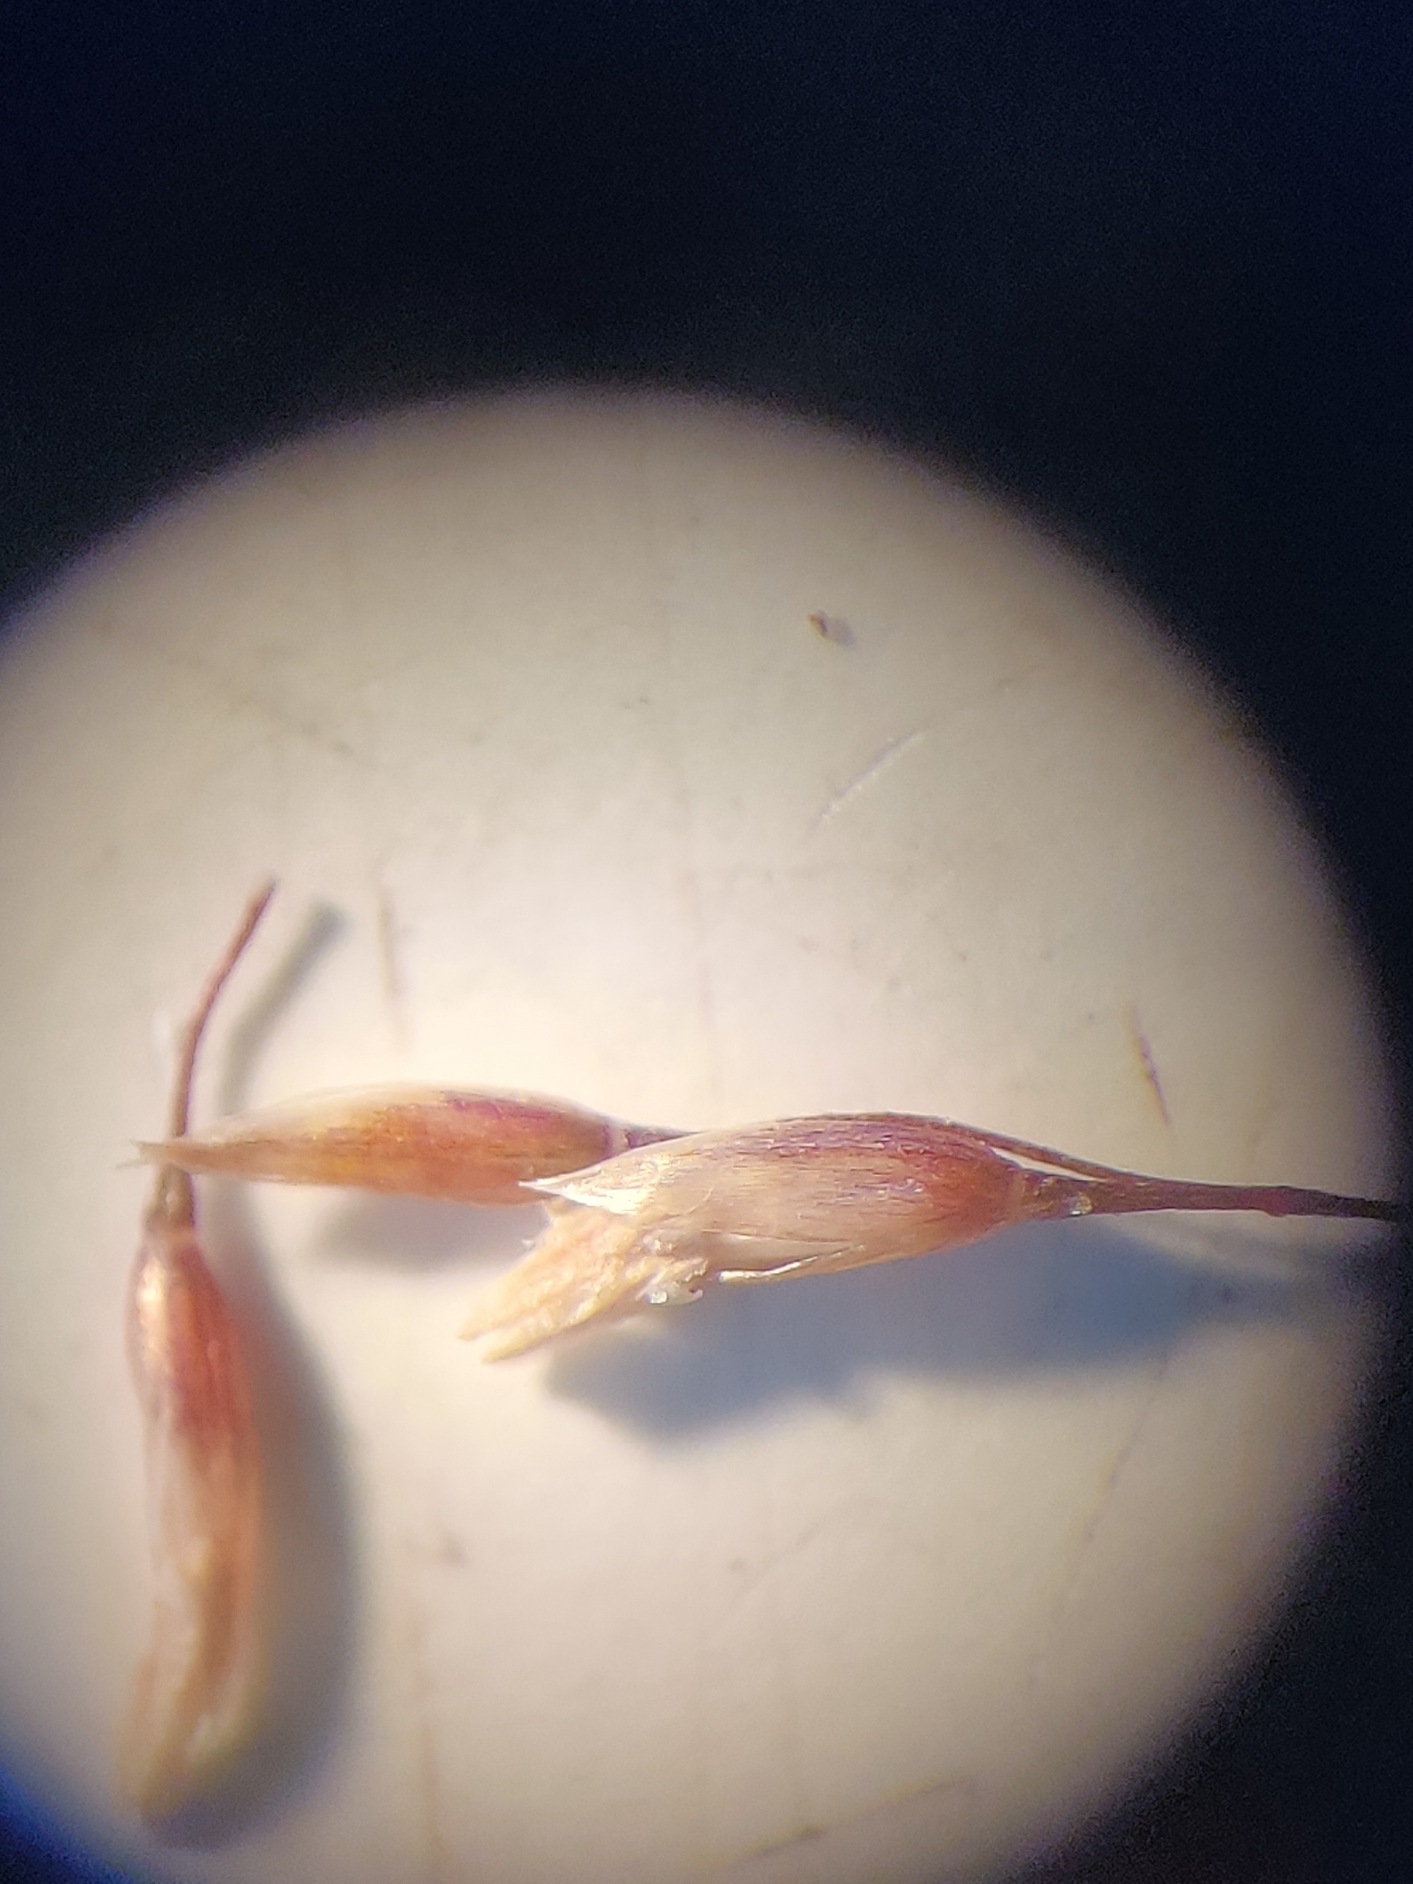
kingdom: Plantae
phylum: Tracheophyta
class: Liliopsida
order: Poales
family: Poaceae
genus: Agrostis
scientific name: Agrostis capillaris
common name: Almindelig hvene
